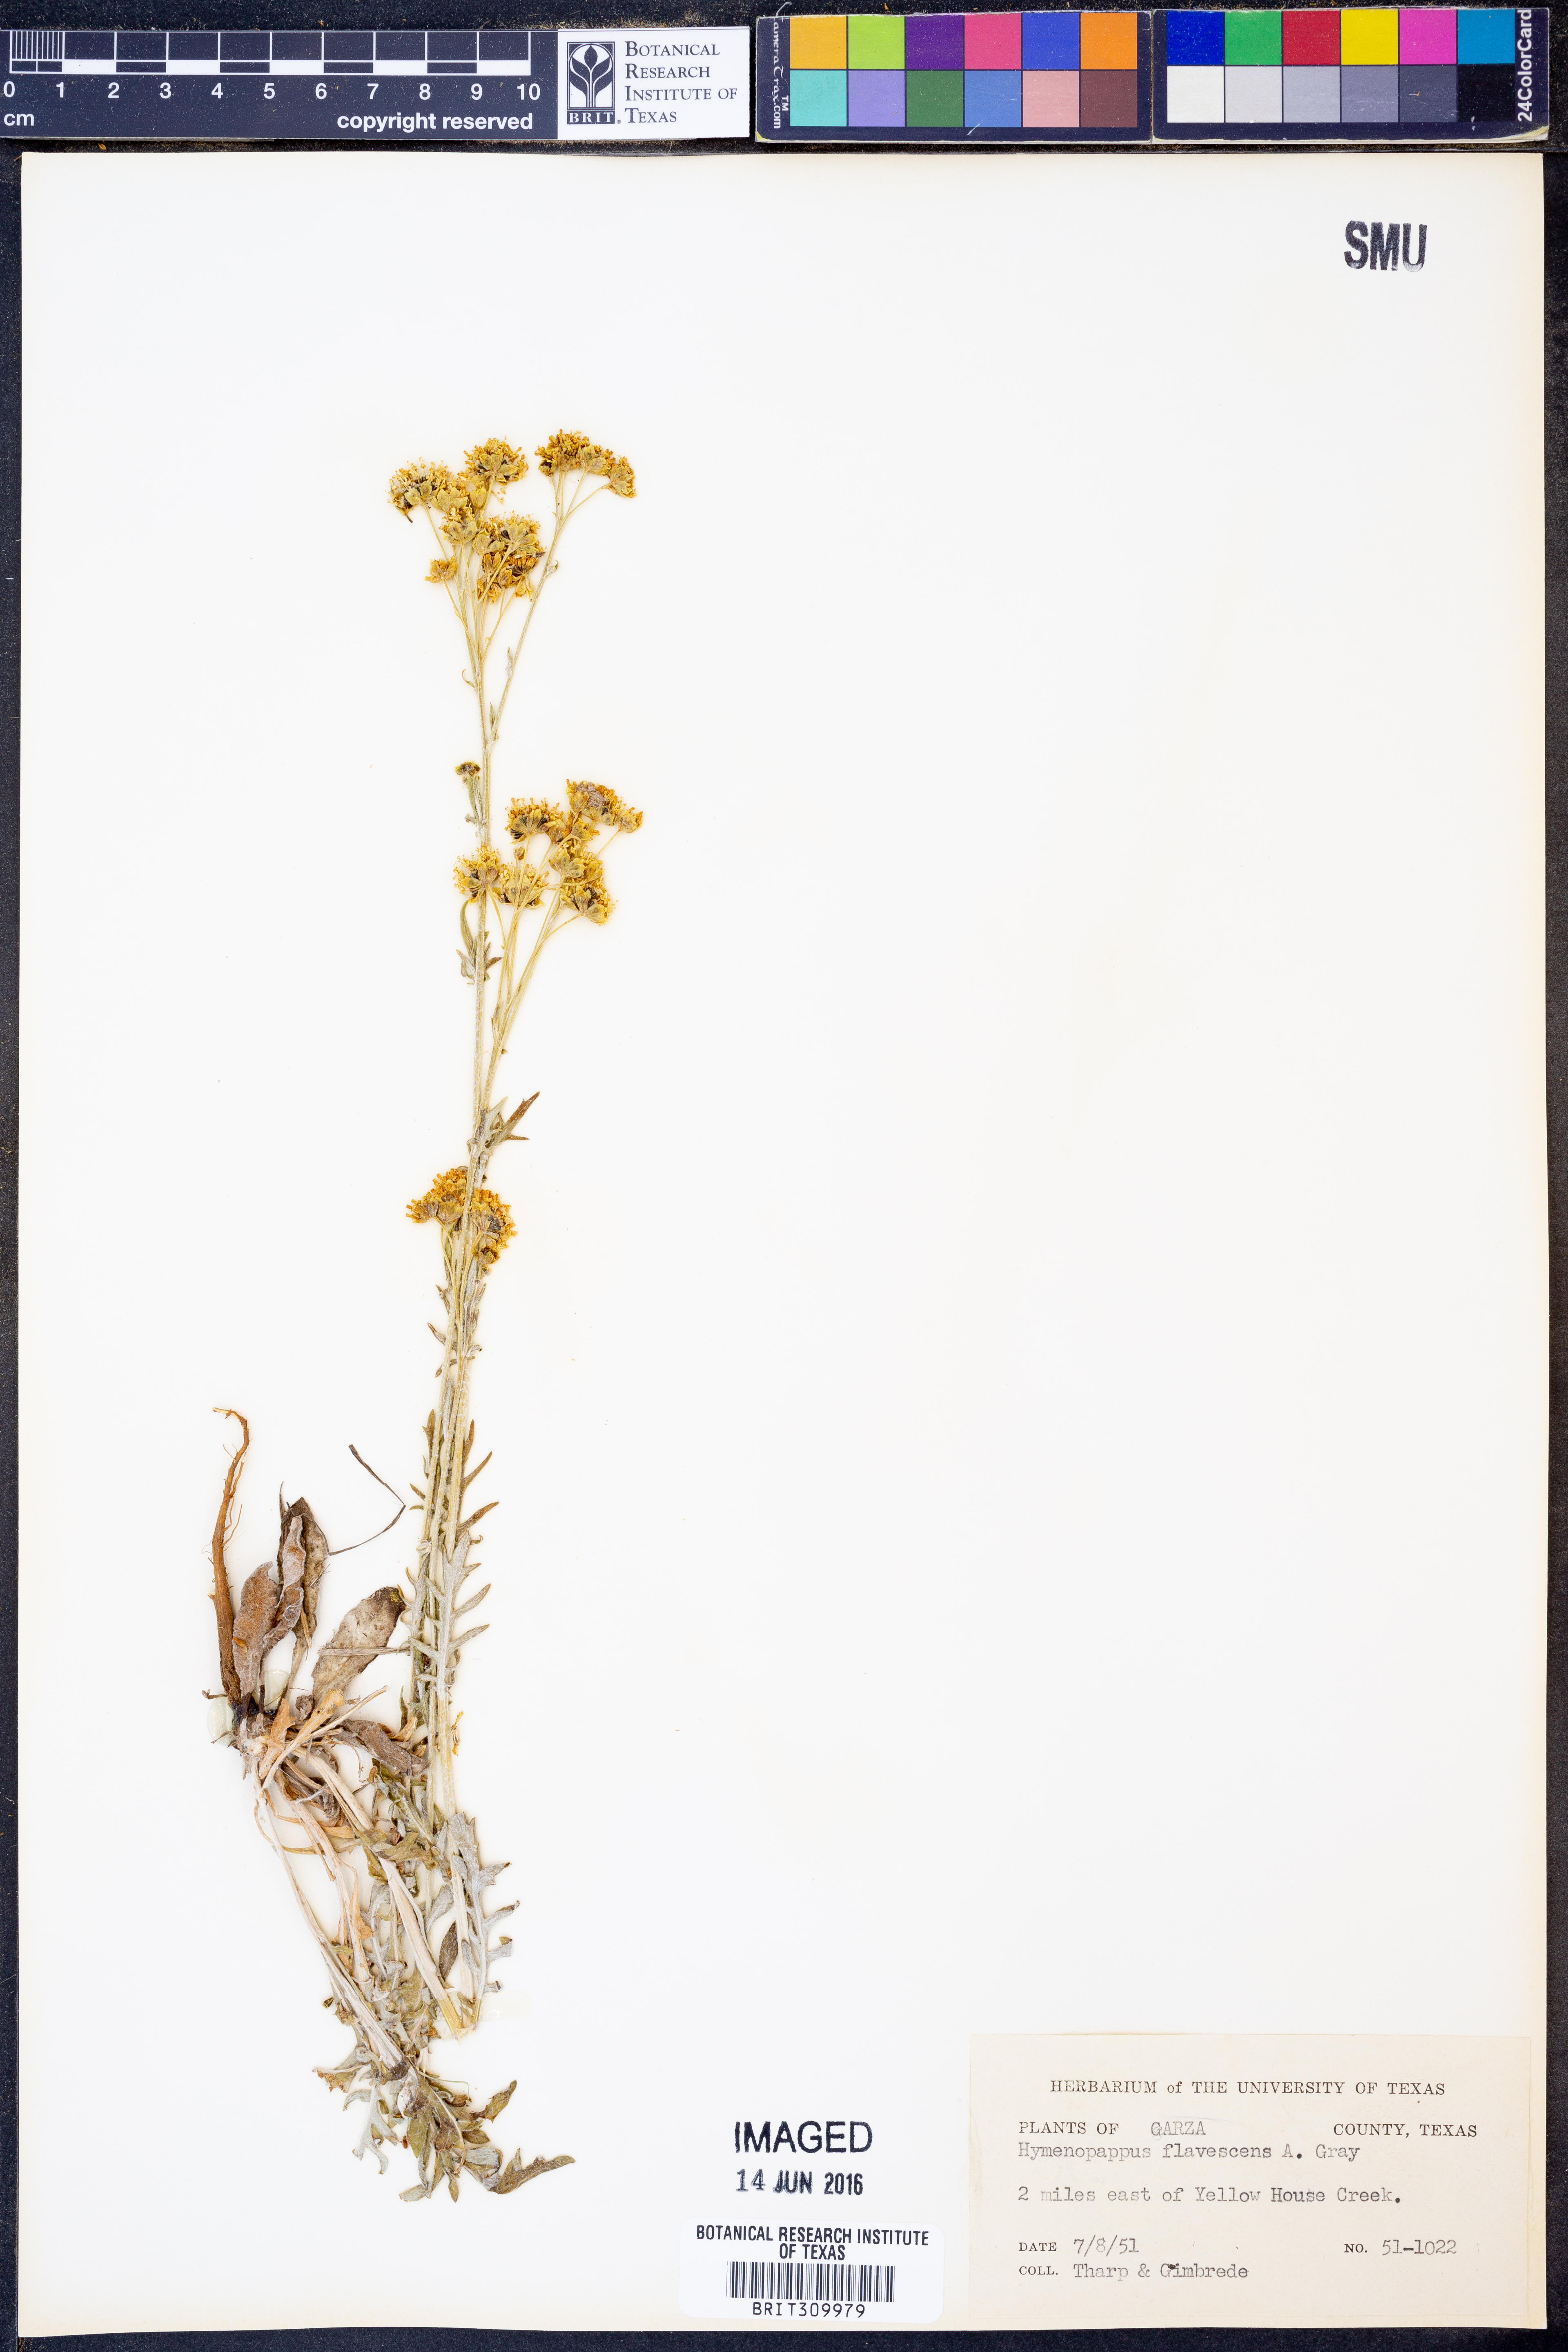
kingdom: Plantae
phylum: Tracheophyta
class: Magnoliopsida
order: Asterales
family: Asteraceae
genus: Hymenopappus
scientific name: Hymenopappus flavescens
